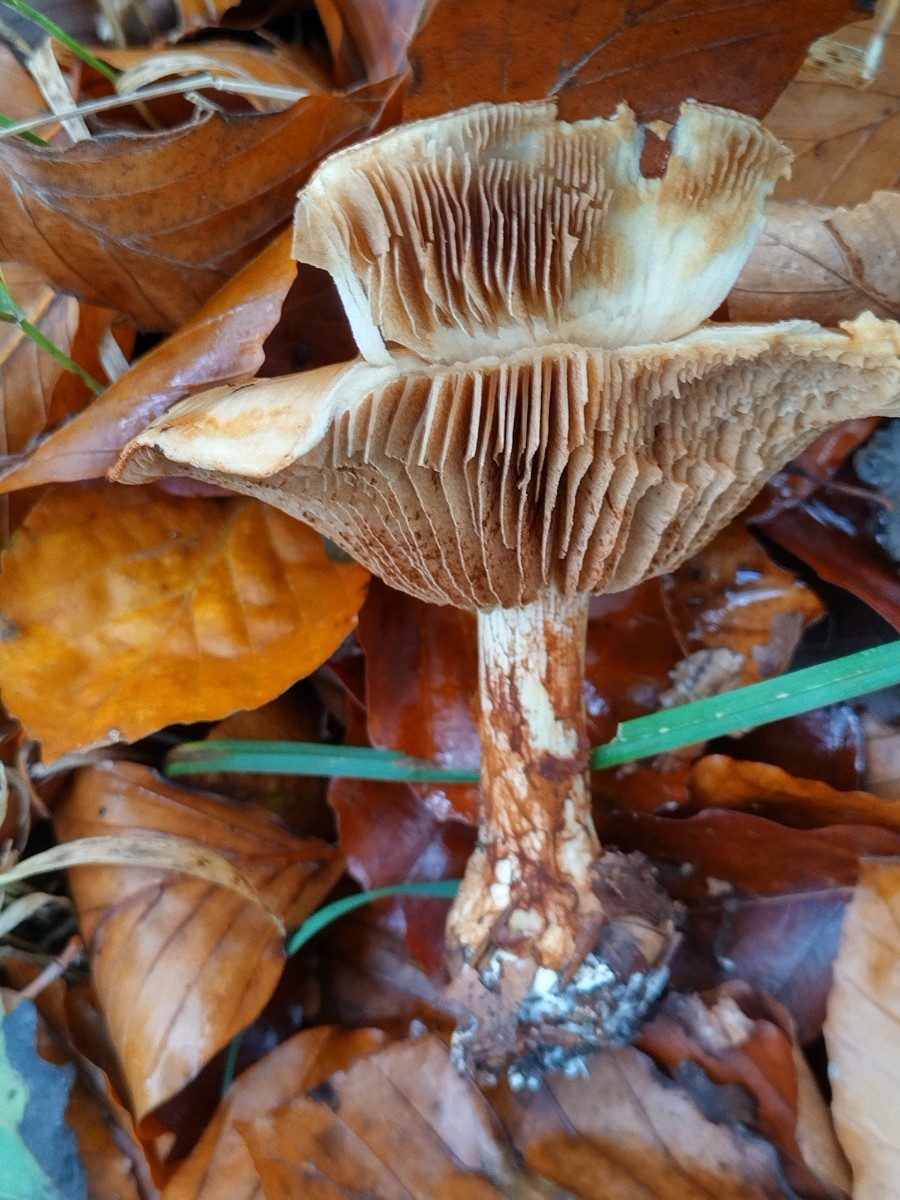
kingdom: Fungi
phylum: Basidiomycota
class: Agaricomycetes
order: Agaricales
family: Cortinariaceae
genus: Cortinarius
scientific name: Cortinarius anserinus
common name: bøge-slørhat
